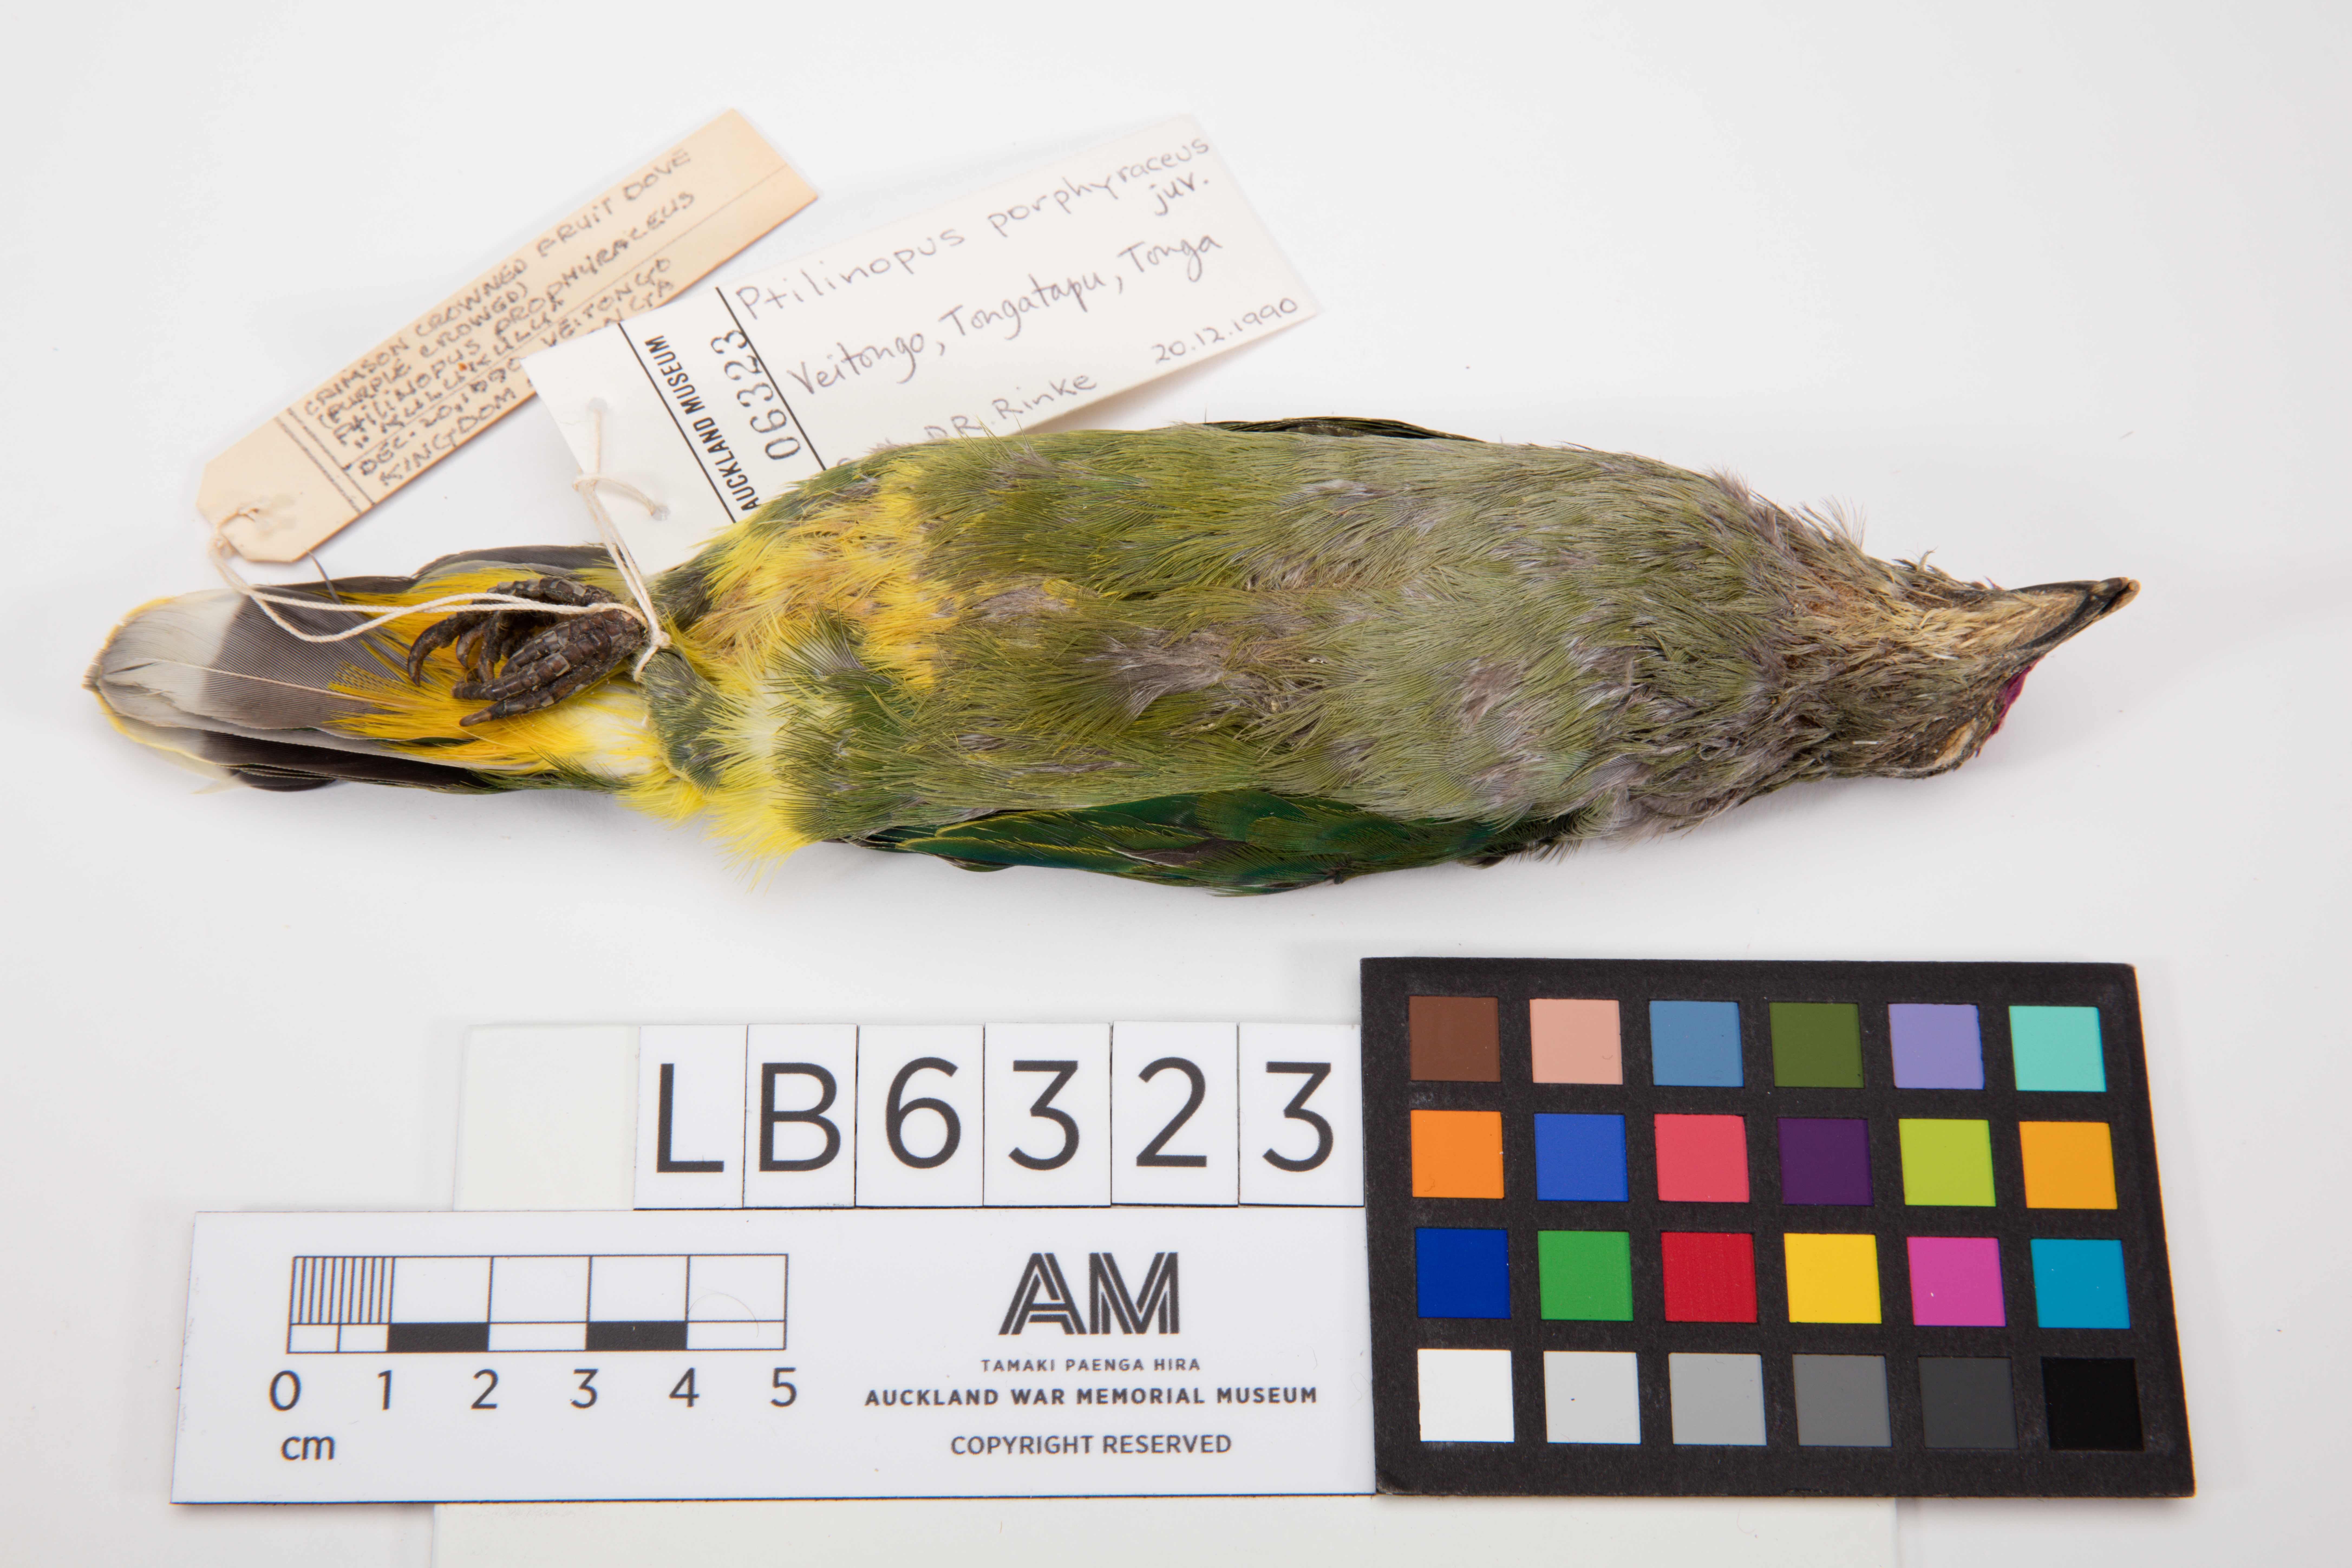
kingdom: Animalia
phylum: Chordata
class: Aves
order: Columbiformes
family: Columbidae
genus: Ptilinopus
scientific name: Ptilinopus porphyraceus
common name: Crimson-crowned fruit dove
